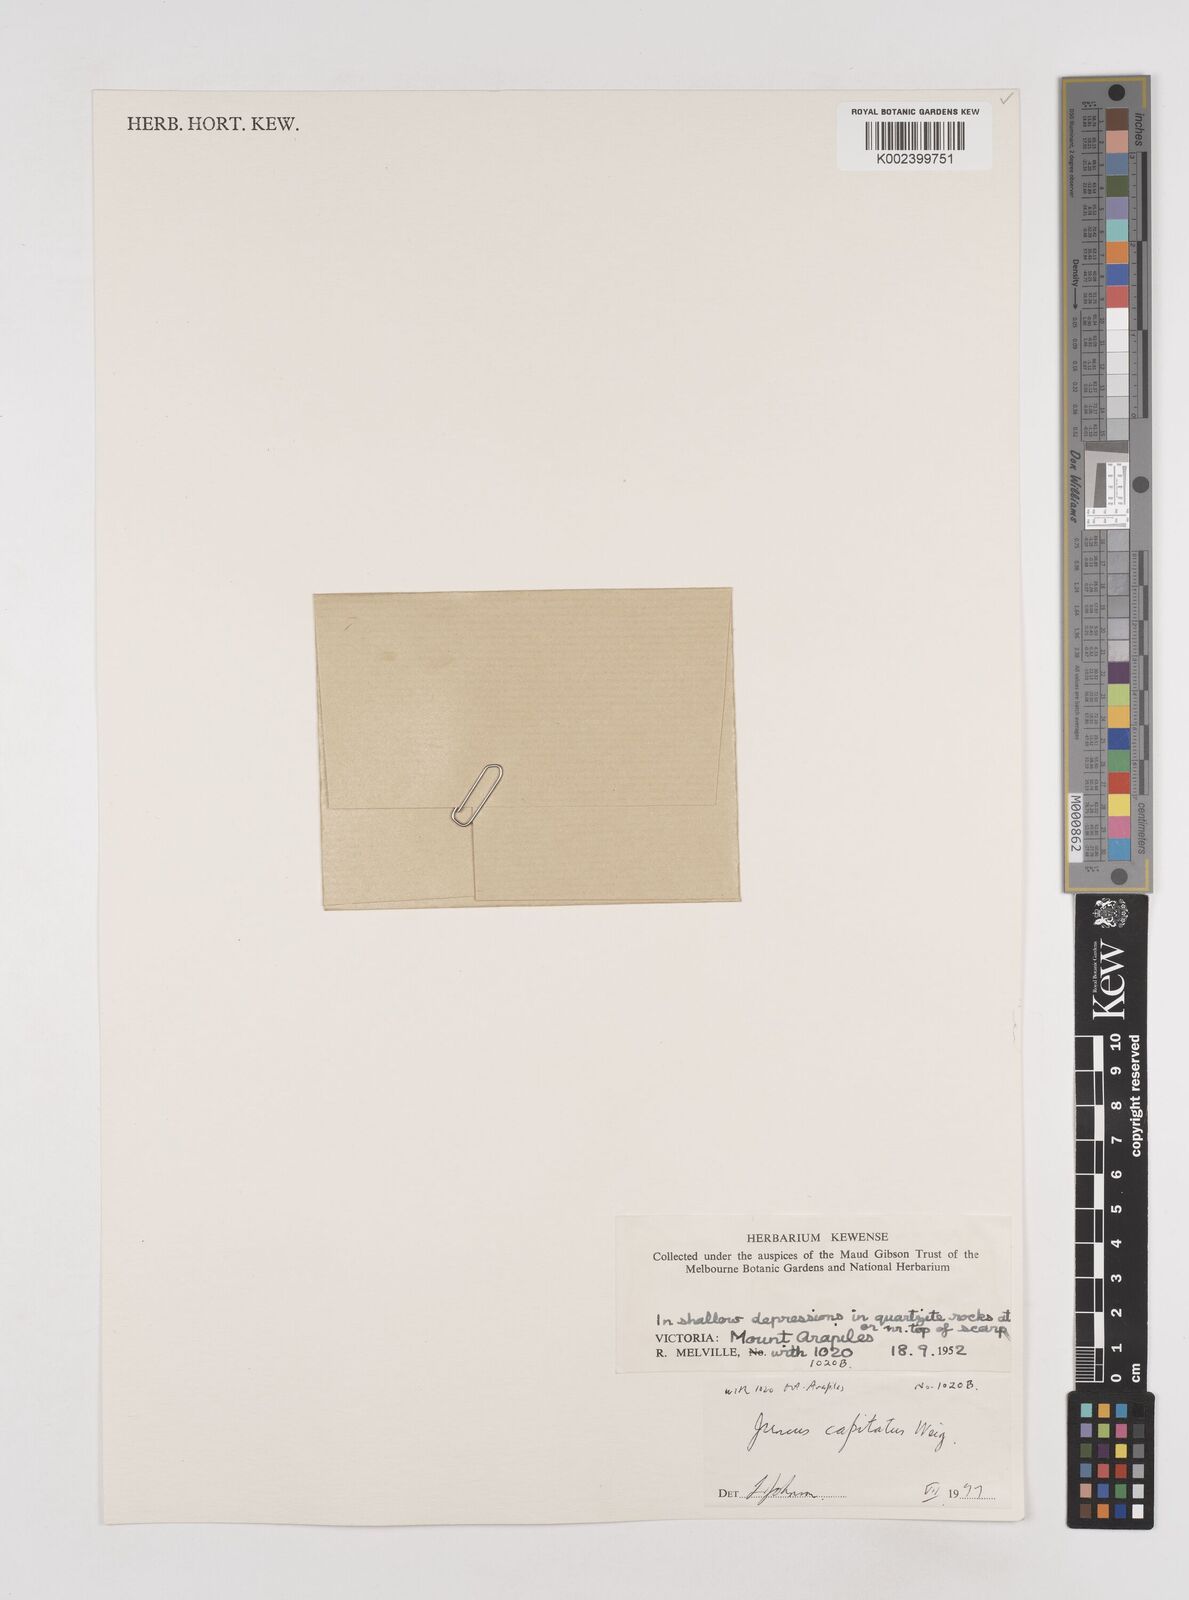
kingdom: Plantae
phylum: Tracheophyta
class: Liliopsida
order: Poales
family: Juncaceae
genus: Juncus
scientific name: Juncus capitatus
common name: Dwarf rush
